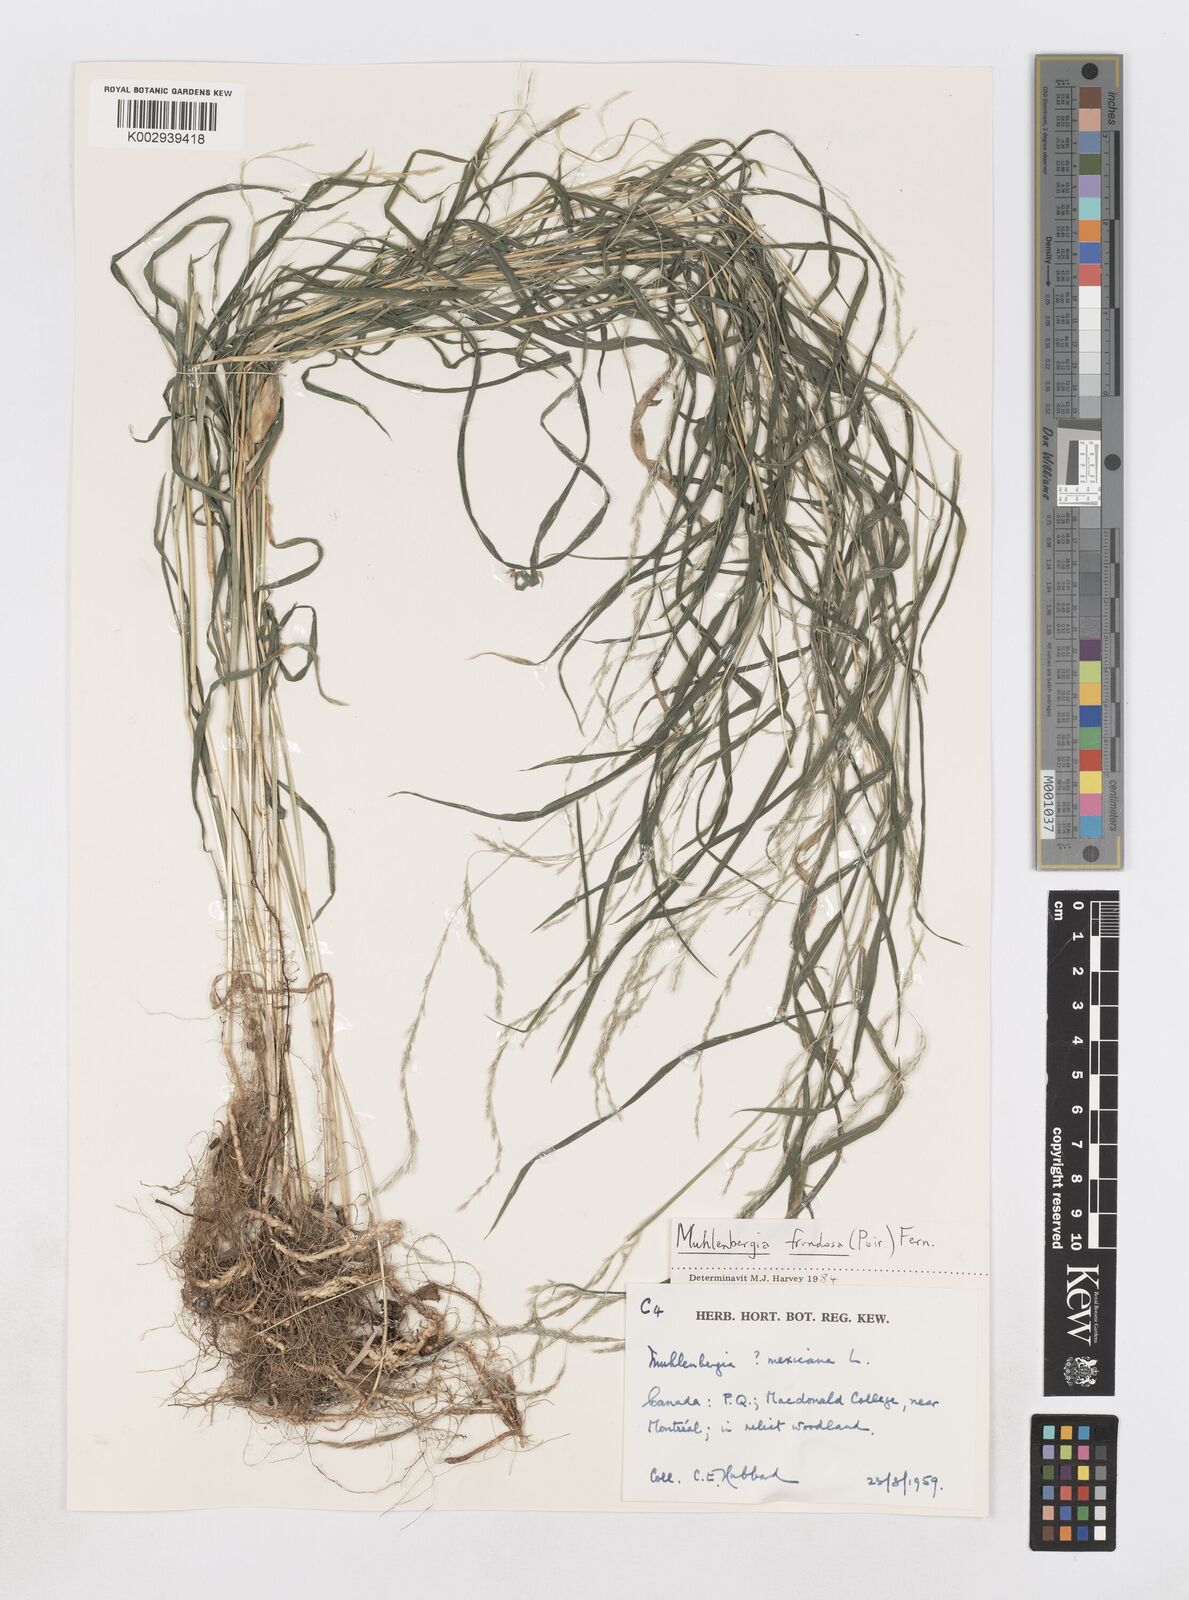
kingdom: Plantae
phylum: Tracheophyta
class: Liliopsida
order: Poales
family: Poaceae
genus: Muhlenbergia
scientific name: Muhlenbergia frondosa
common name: Common satingrass
